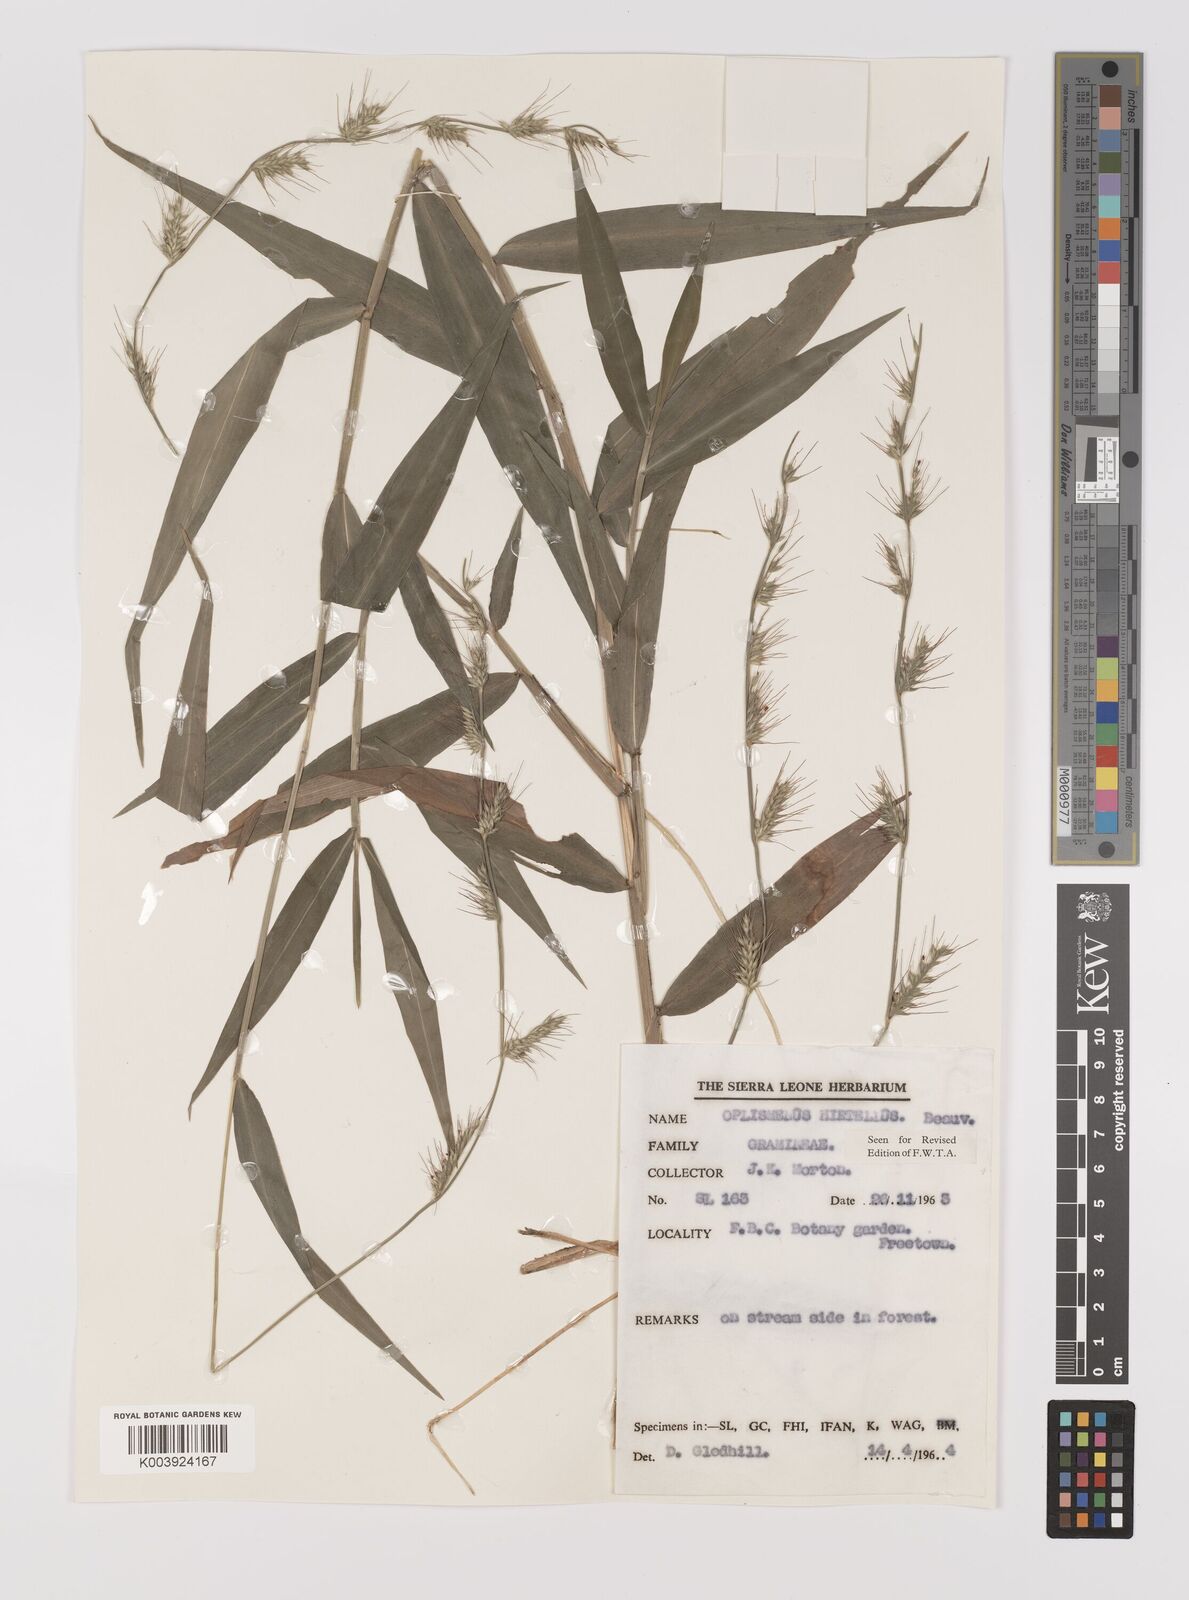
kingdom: Plantae
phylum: Tracheophyta
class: Liliopsida
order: Poales
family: Poaceae
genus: Oplismenus
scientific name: Oplismenus hirtellus
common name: Basketgrass
